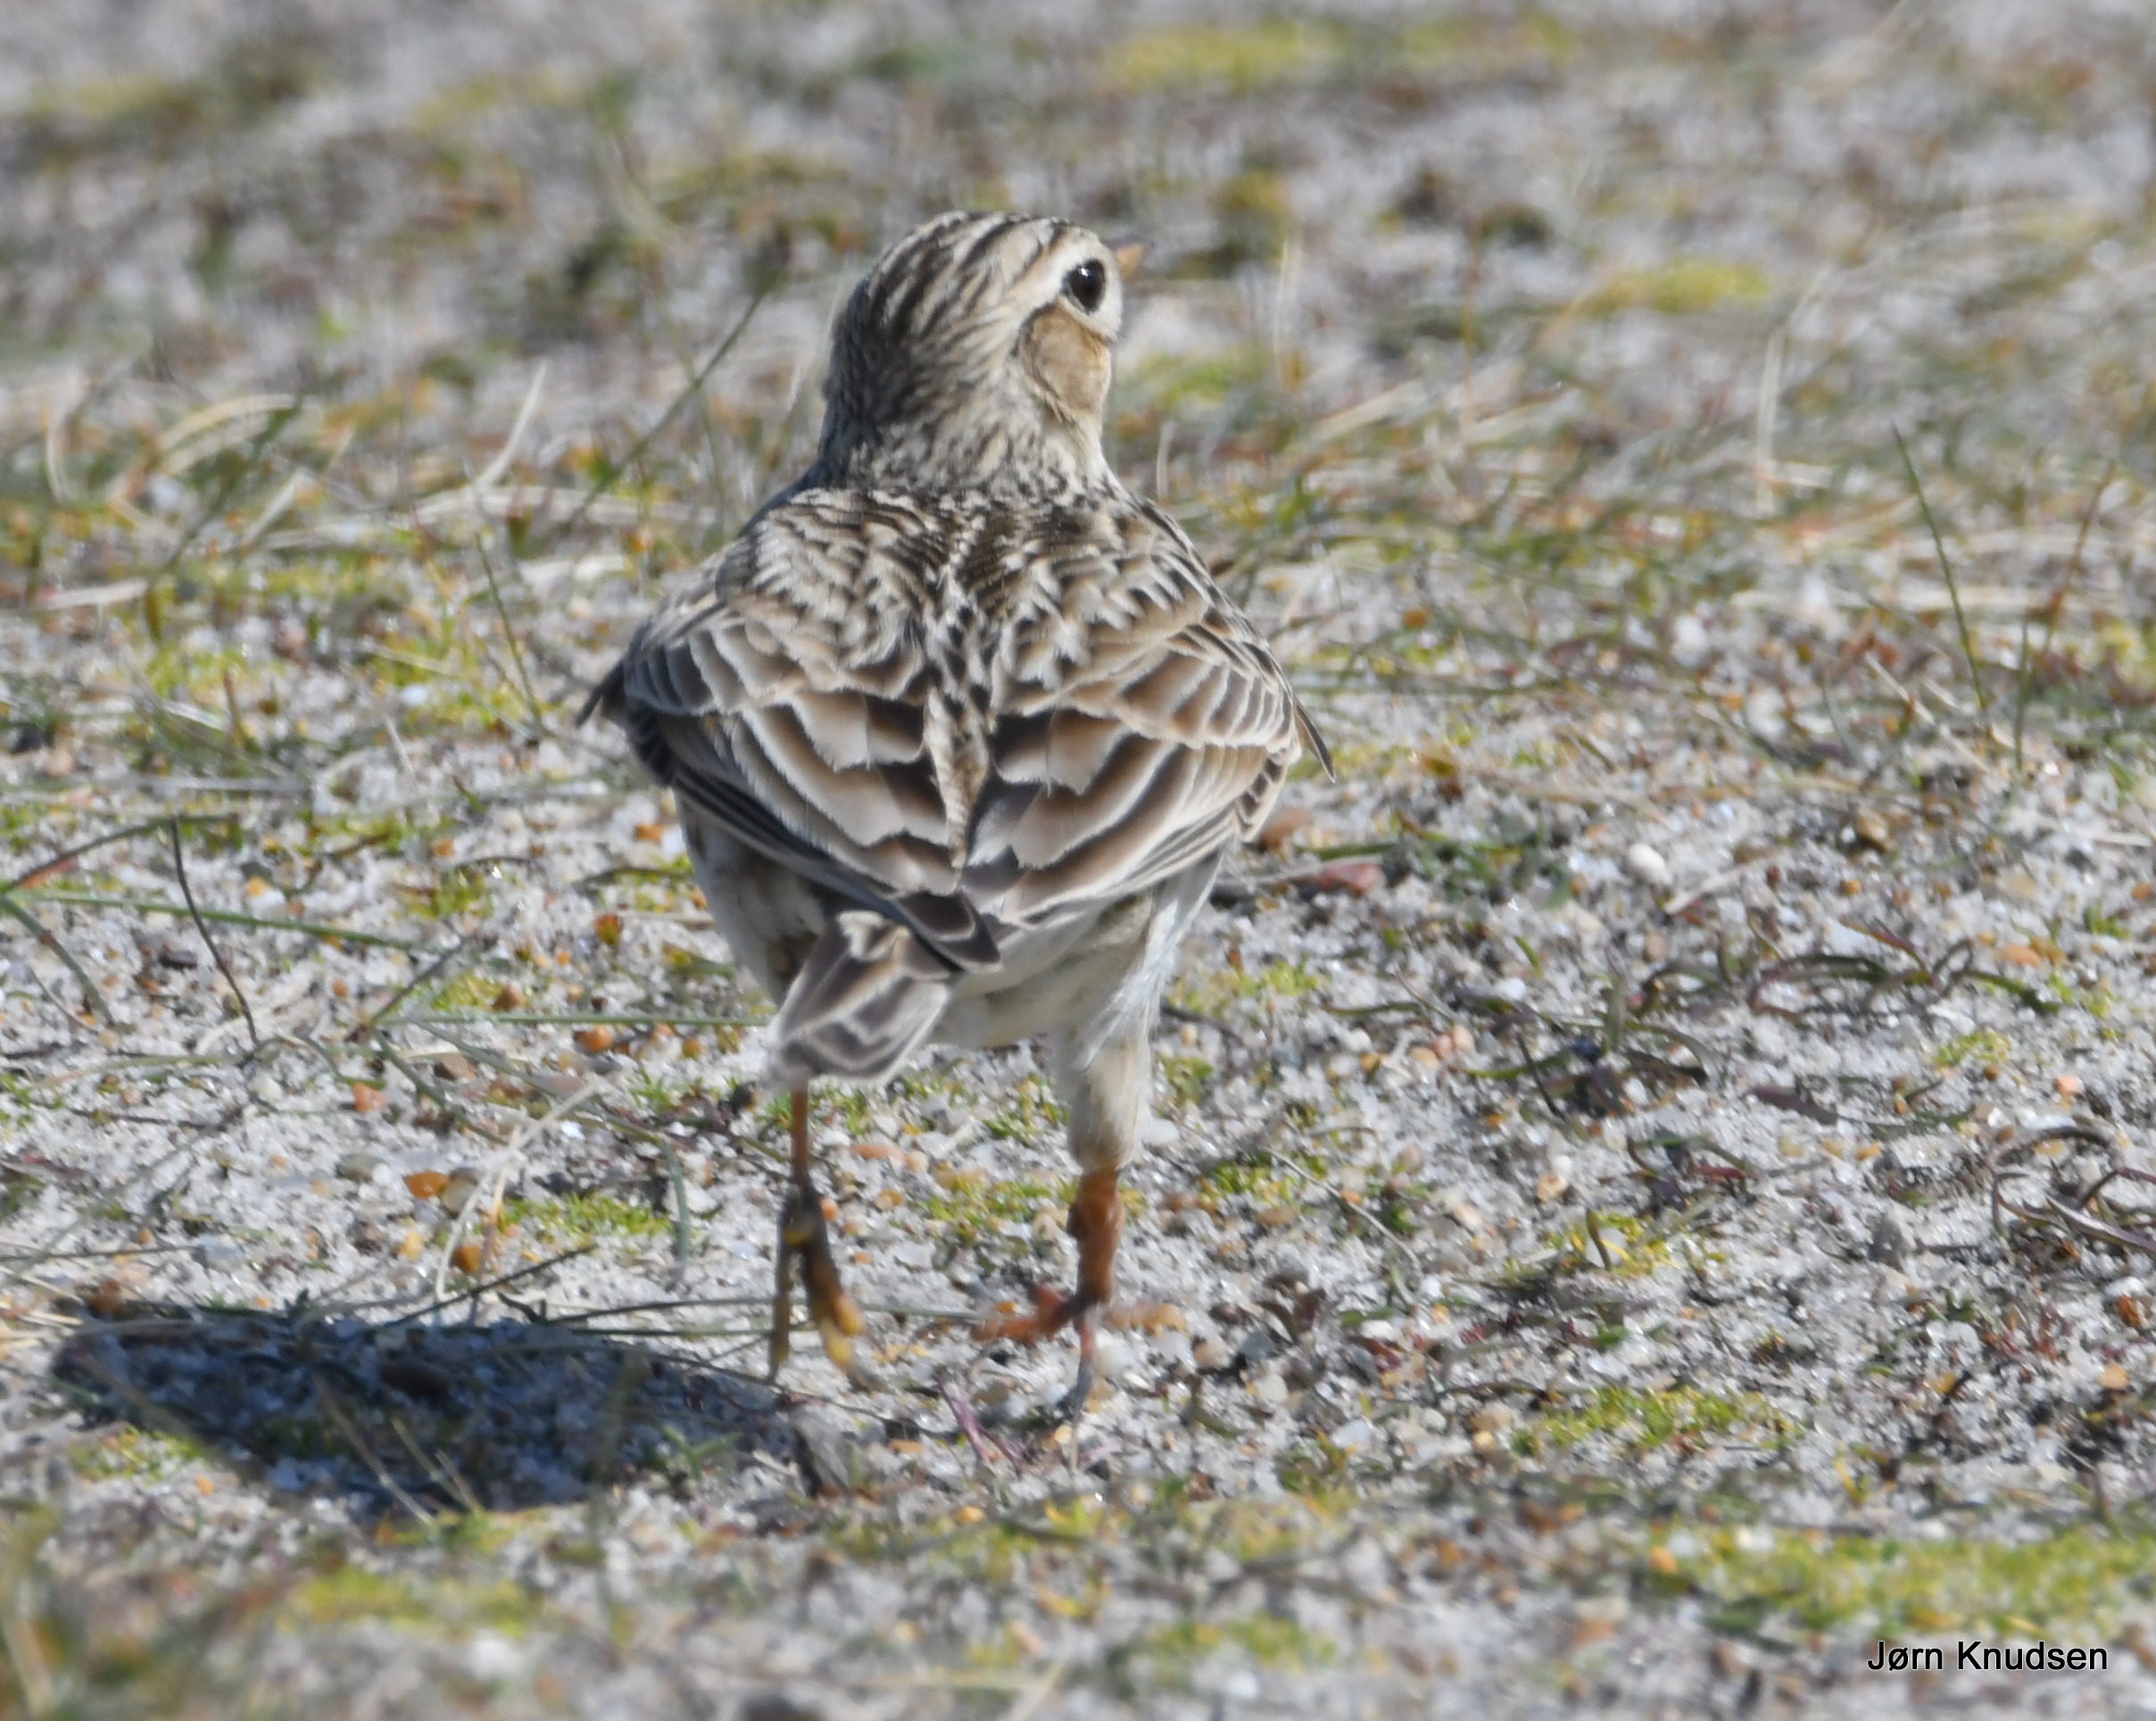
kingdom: Animalia
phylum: Chordata
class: Aves
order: Passeriformes
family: Alaudidae
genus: Alauda
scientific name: Alauda arvensis
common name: Sanglærke
